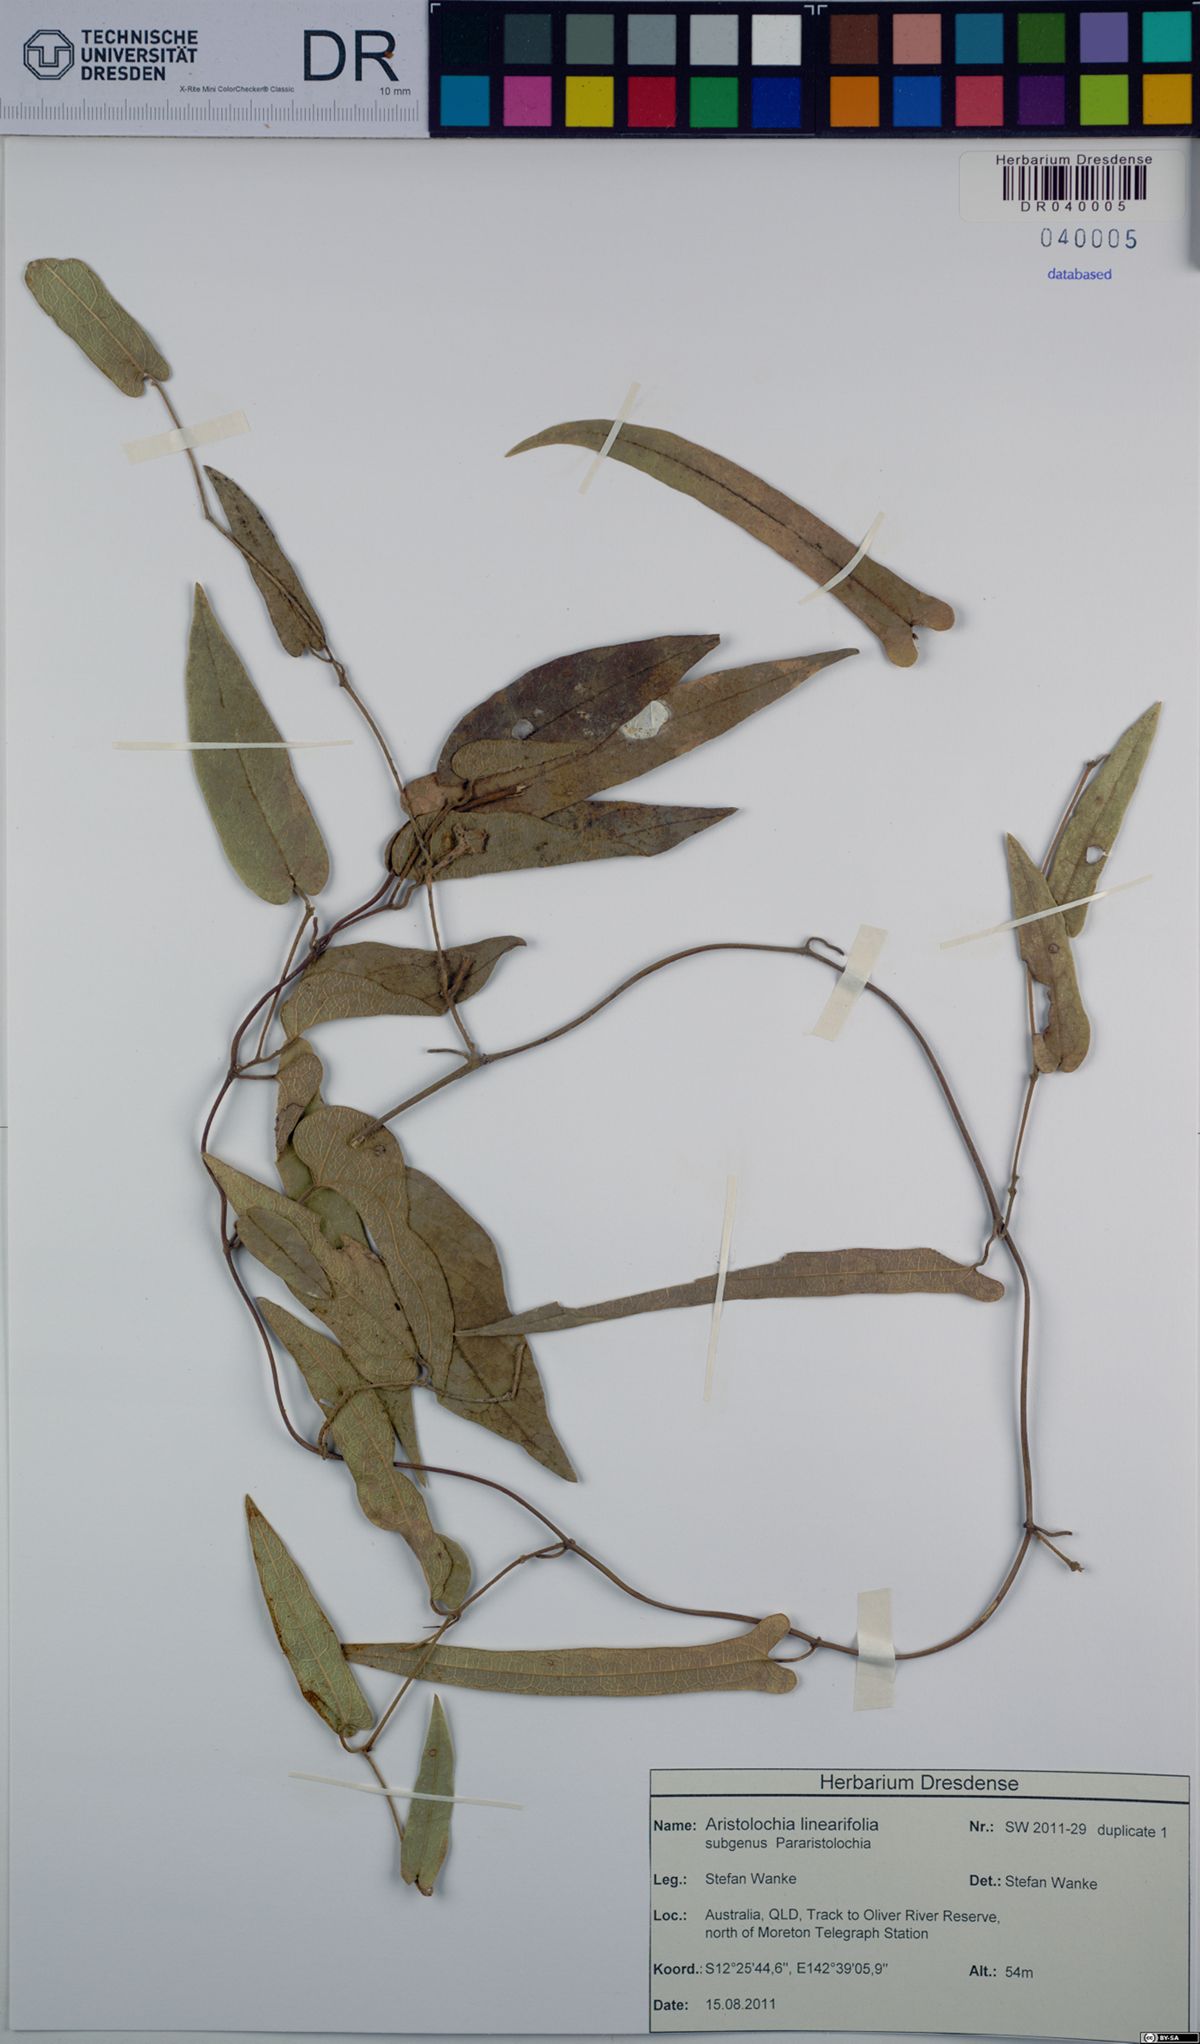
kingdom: Plantae
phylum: Tracheophyta
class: Magnoliopsida
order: Piperales
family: Aristolochiaceae
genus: Aristolochia
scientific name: Aristolochia linearifolia
